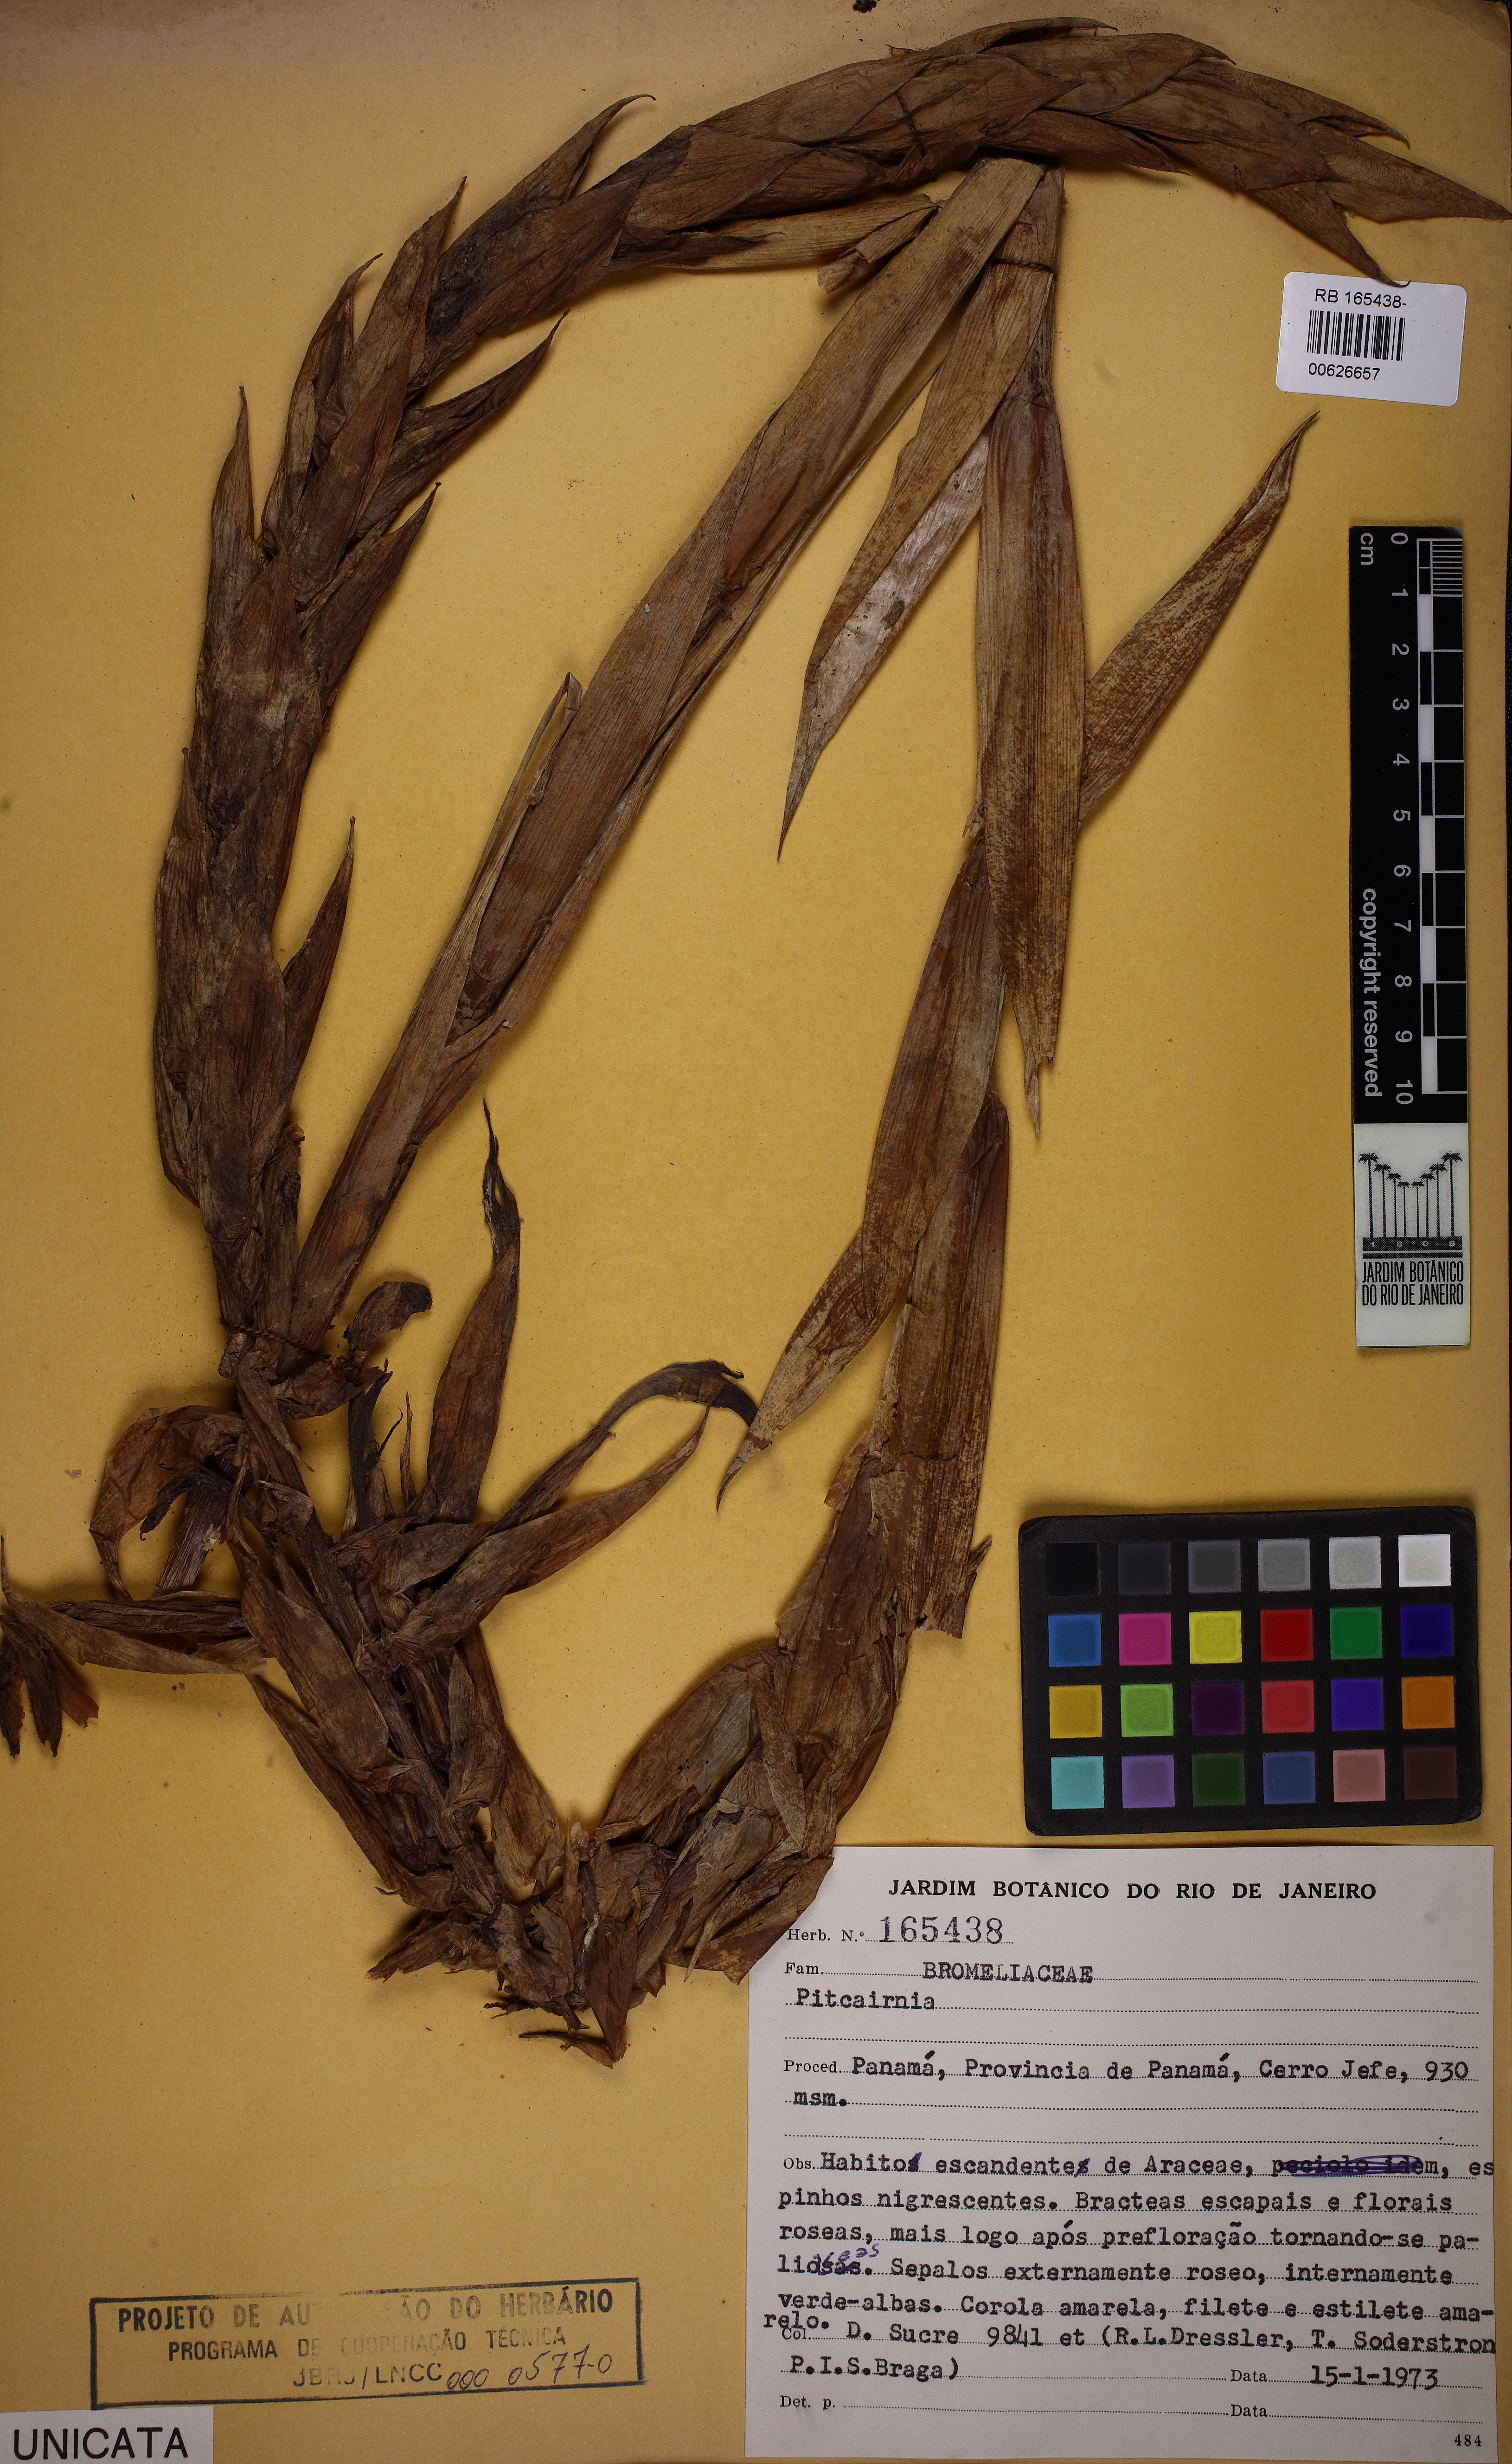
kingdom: Plantae
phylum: Tracheophyta
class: Liliopsida
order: Poales
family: Bromeliaceae
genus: Pitcairnia
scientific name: Pitcairnia
